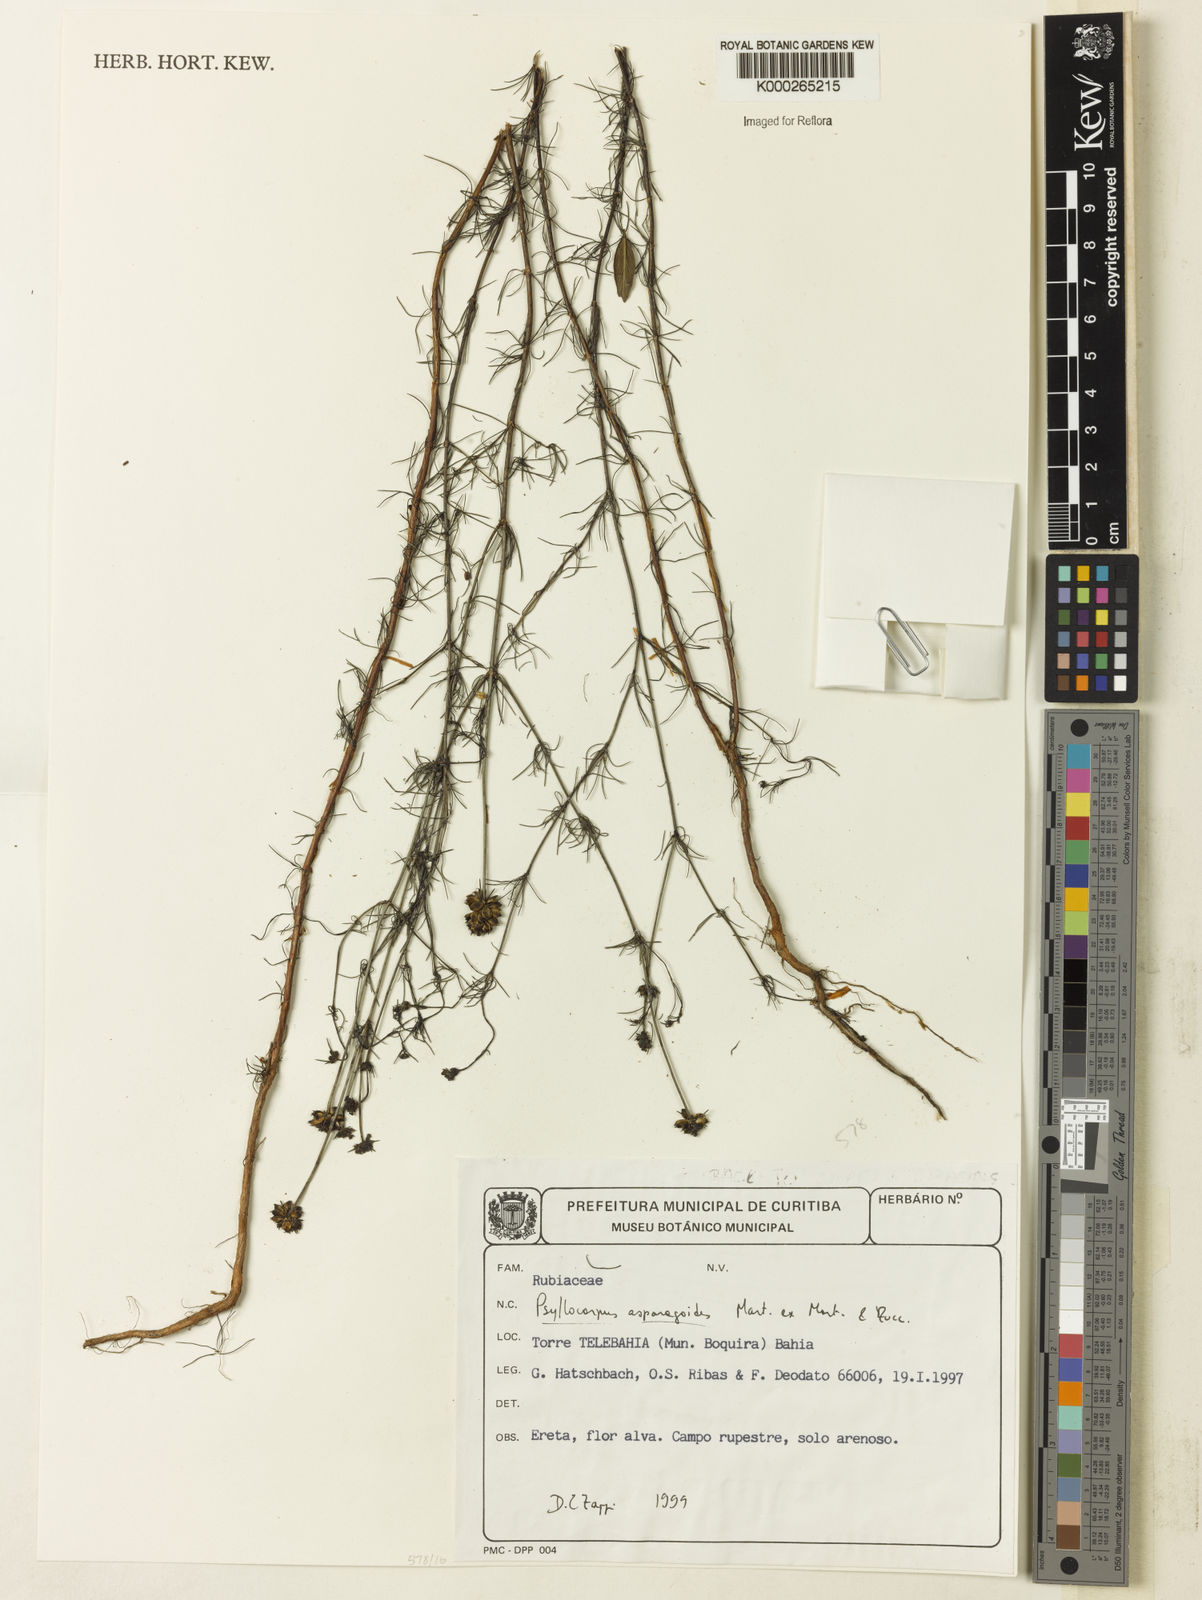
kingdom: Plantae
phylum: Tracheophyta
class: Magnoliopsida
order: Gentianales
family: Rubiaceae
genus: Psyllocarpus
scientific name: Psyllocarpus asparagoides
